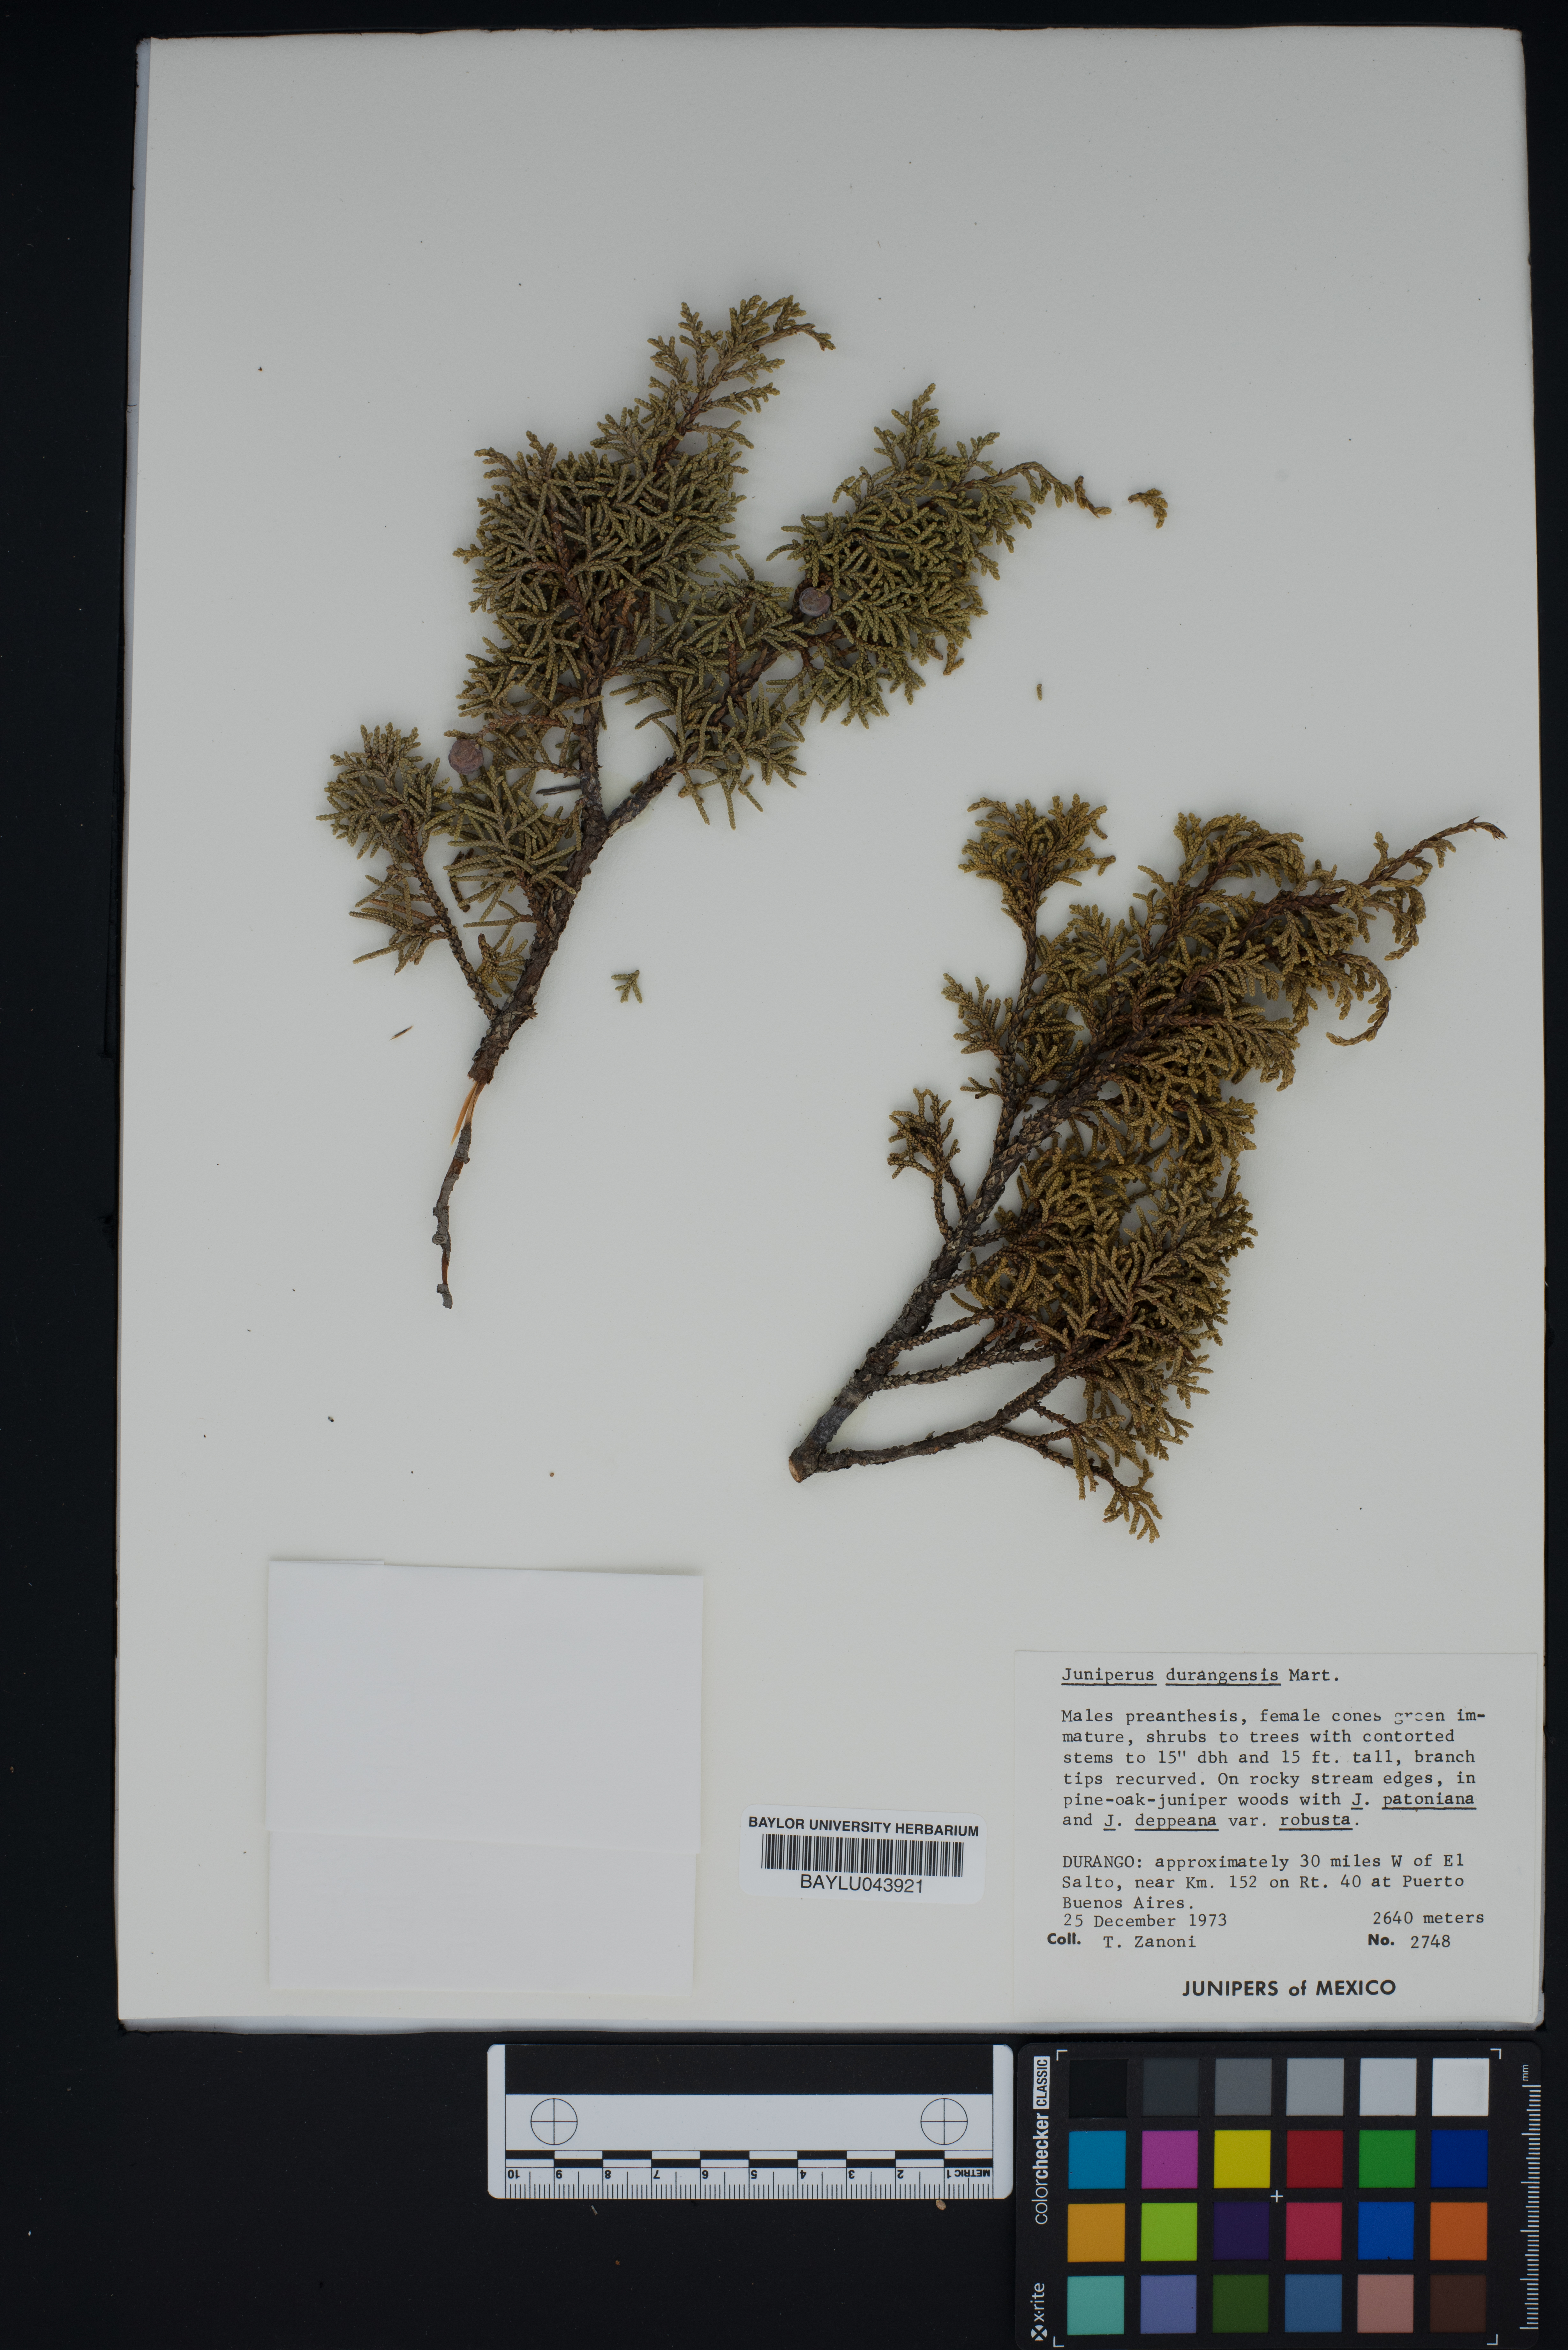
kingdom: Plantae
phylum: Tracheophyta
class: Pinopsida
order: Pinales
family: Cupressaceae
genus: Juniperus
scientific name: Juniperus durangensis
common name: Durango juniper
